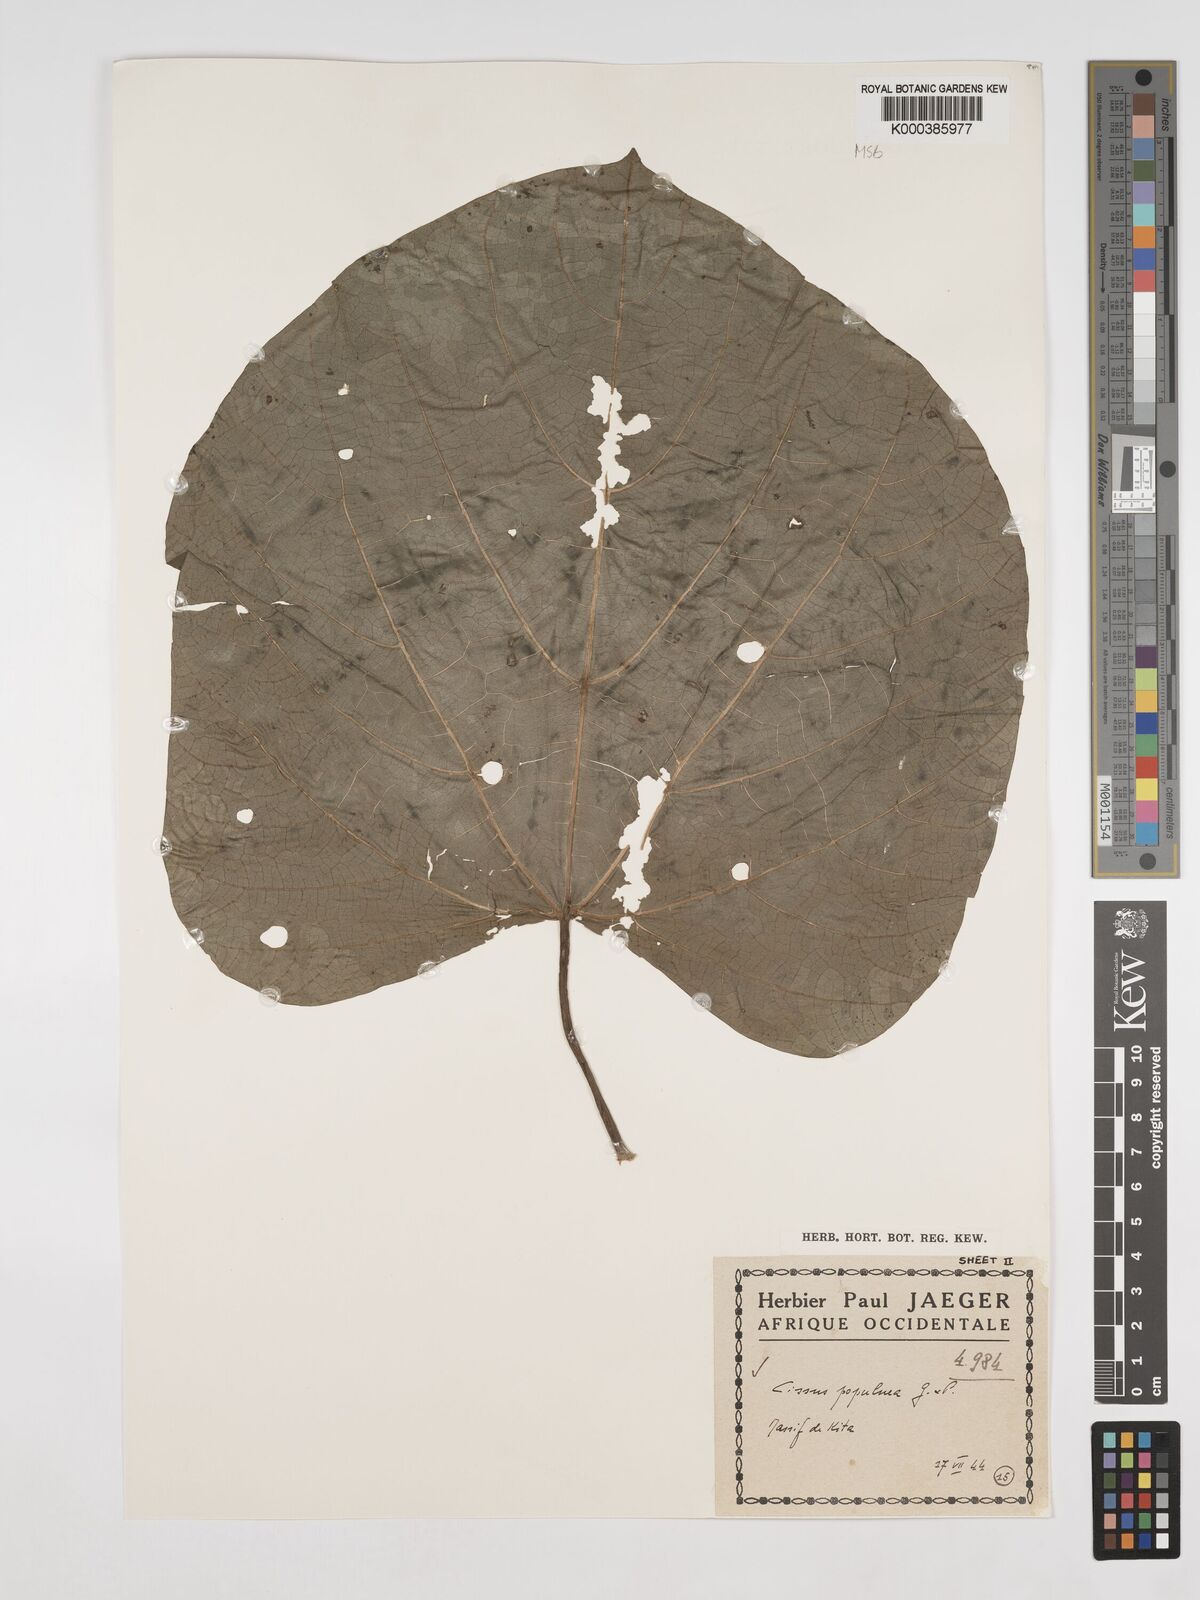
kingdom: Plantae
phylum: Tracheophyta
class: Magnoliopsida
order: Vitales
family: Vitaceae
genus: Cissus
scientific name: Cissus populnea
